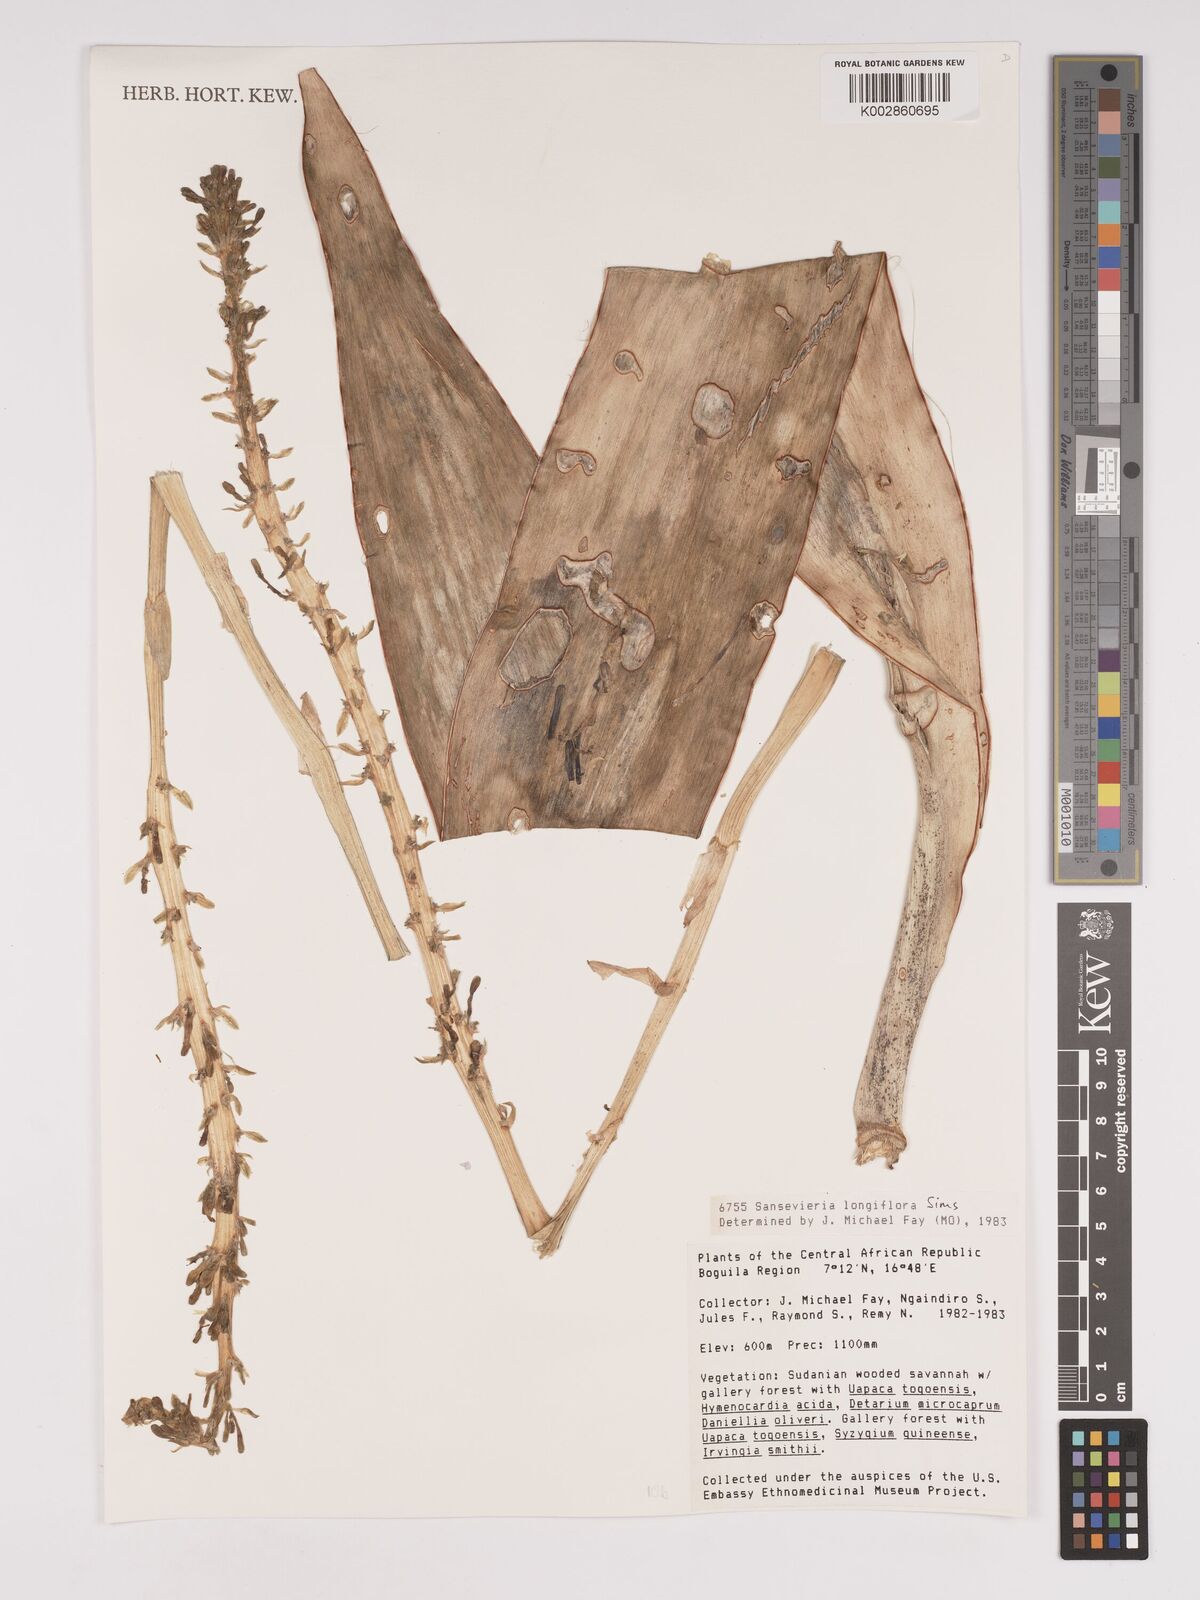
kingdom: Plantae
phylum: Tracheophyta
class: Liliopsida
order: Asparagales
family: Asparagaceae
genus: Dracaena
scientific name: Dracaena longiflora
